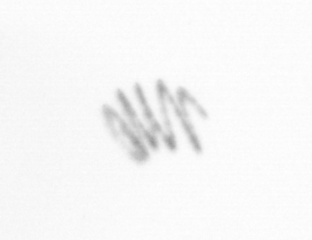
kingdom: Chromista
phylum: Ochrophyta
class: Bacillariophyceae
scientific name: Bacillariophyceae
